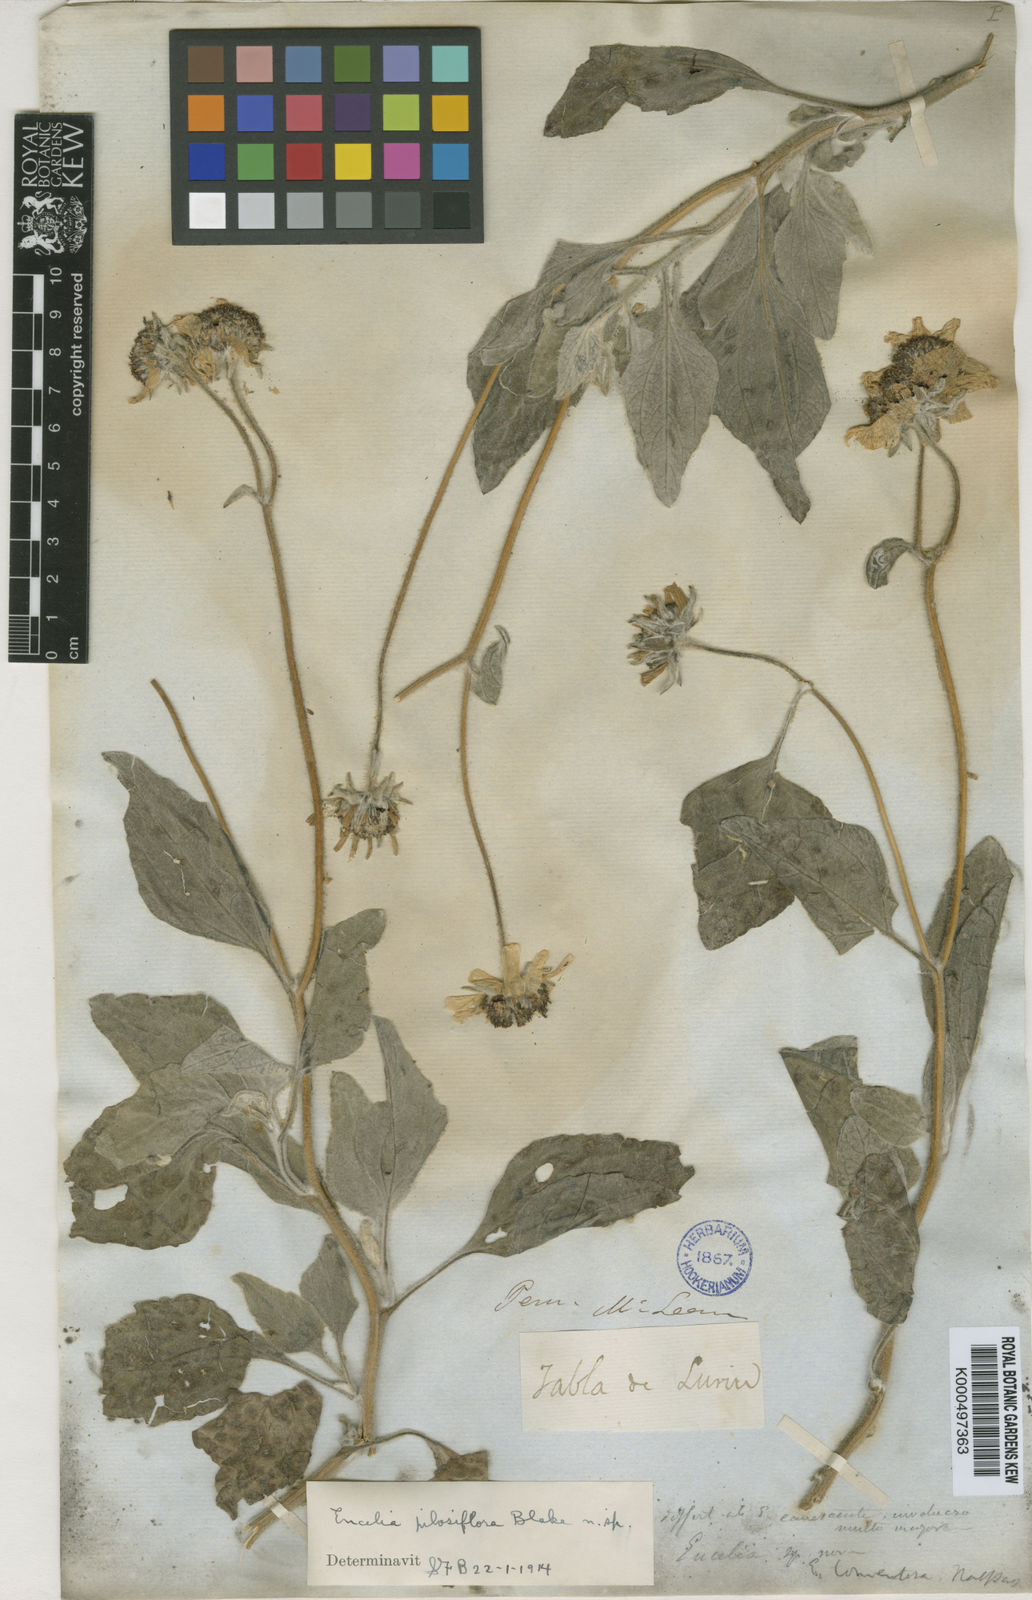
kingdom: Plantae
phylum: Tracheophyta
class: Magnoliopsida
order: Asterales
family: Asteraceae
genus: Encelia
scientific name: Encelia pilosiflora
